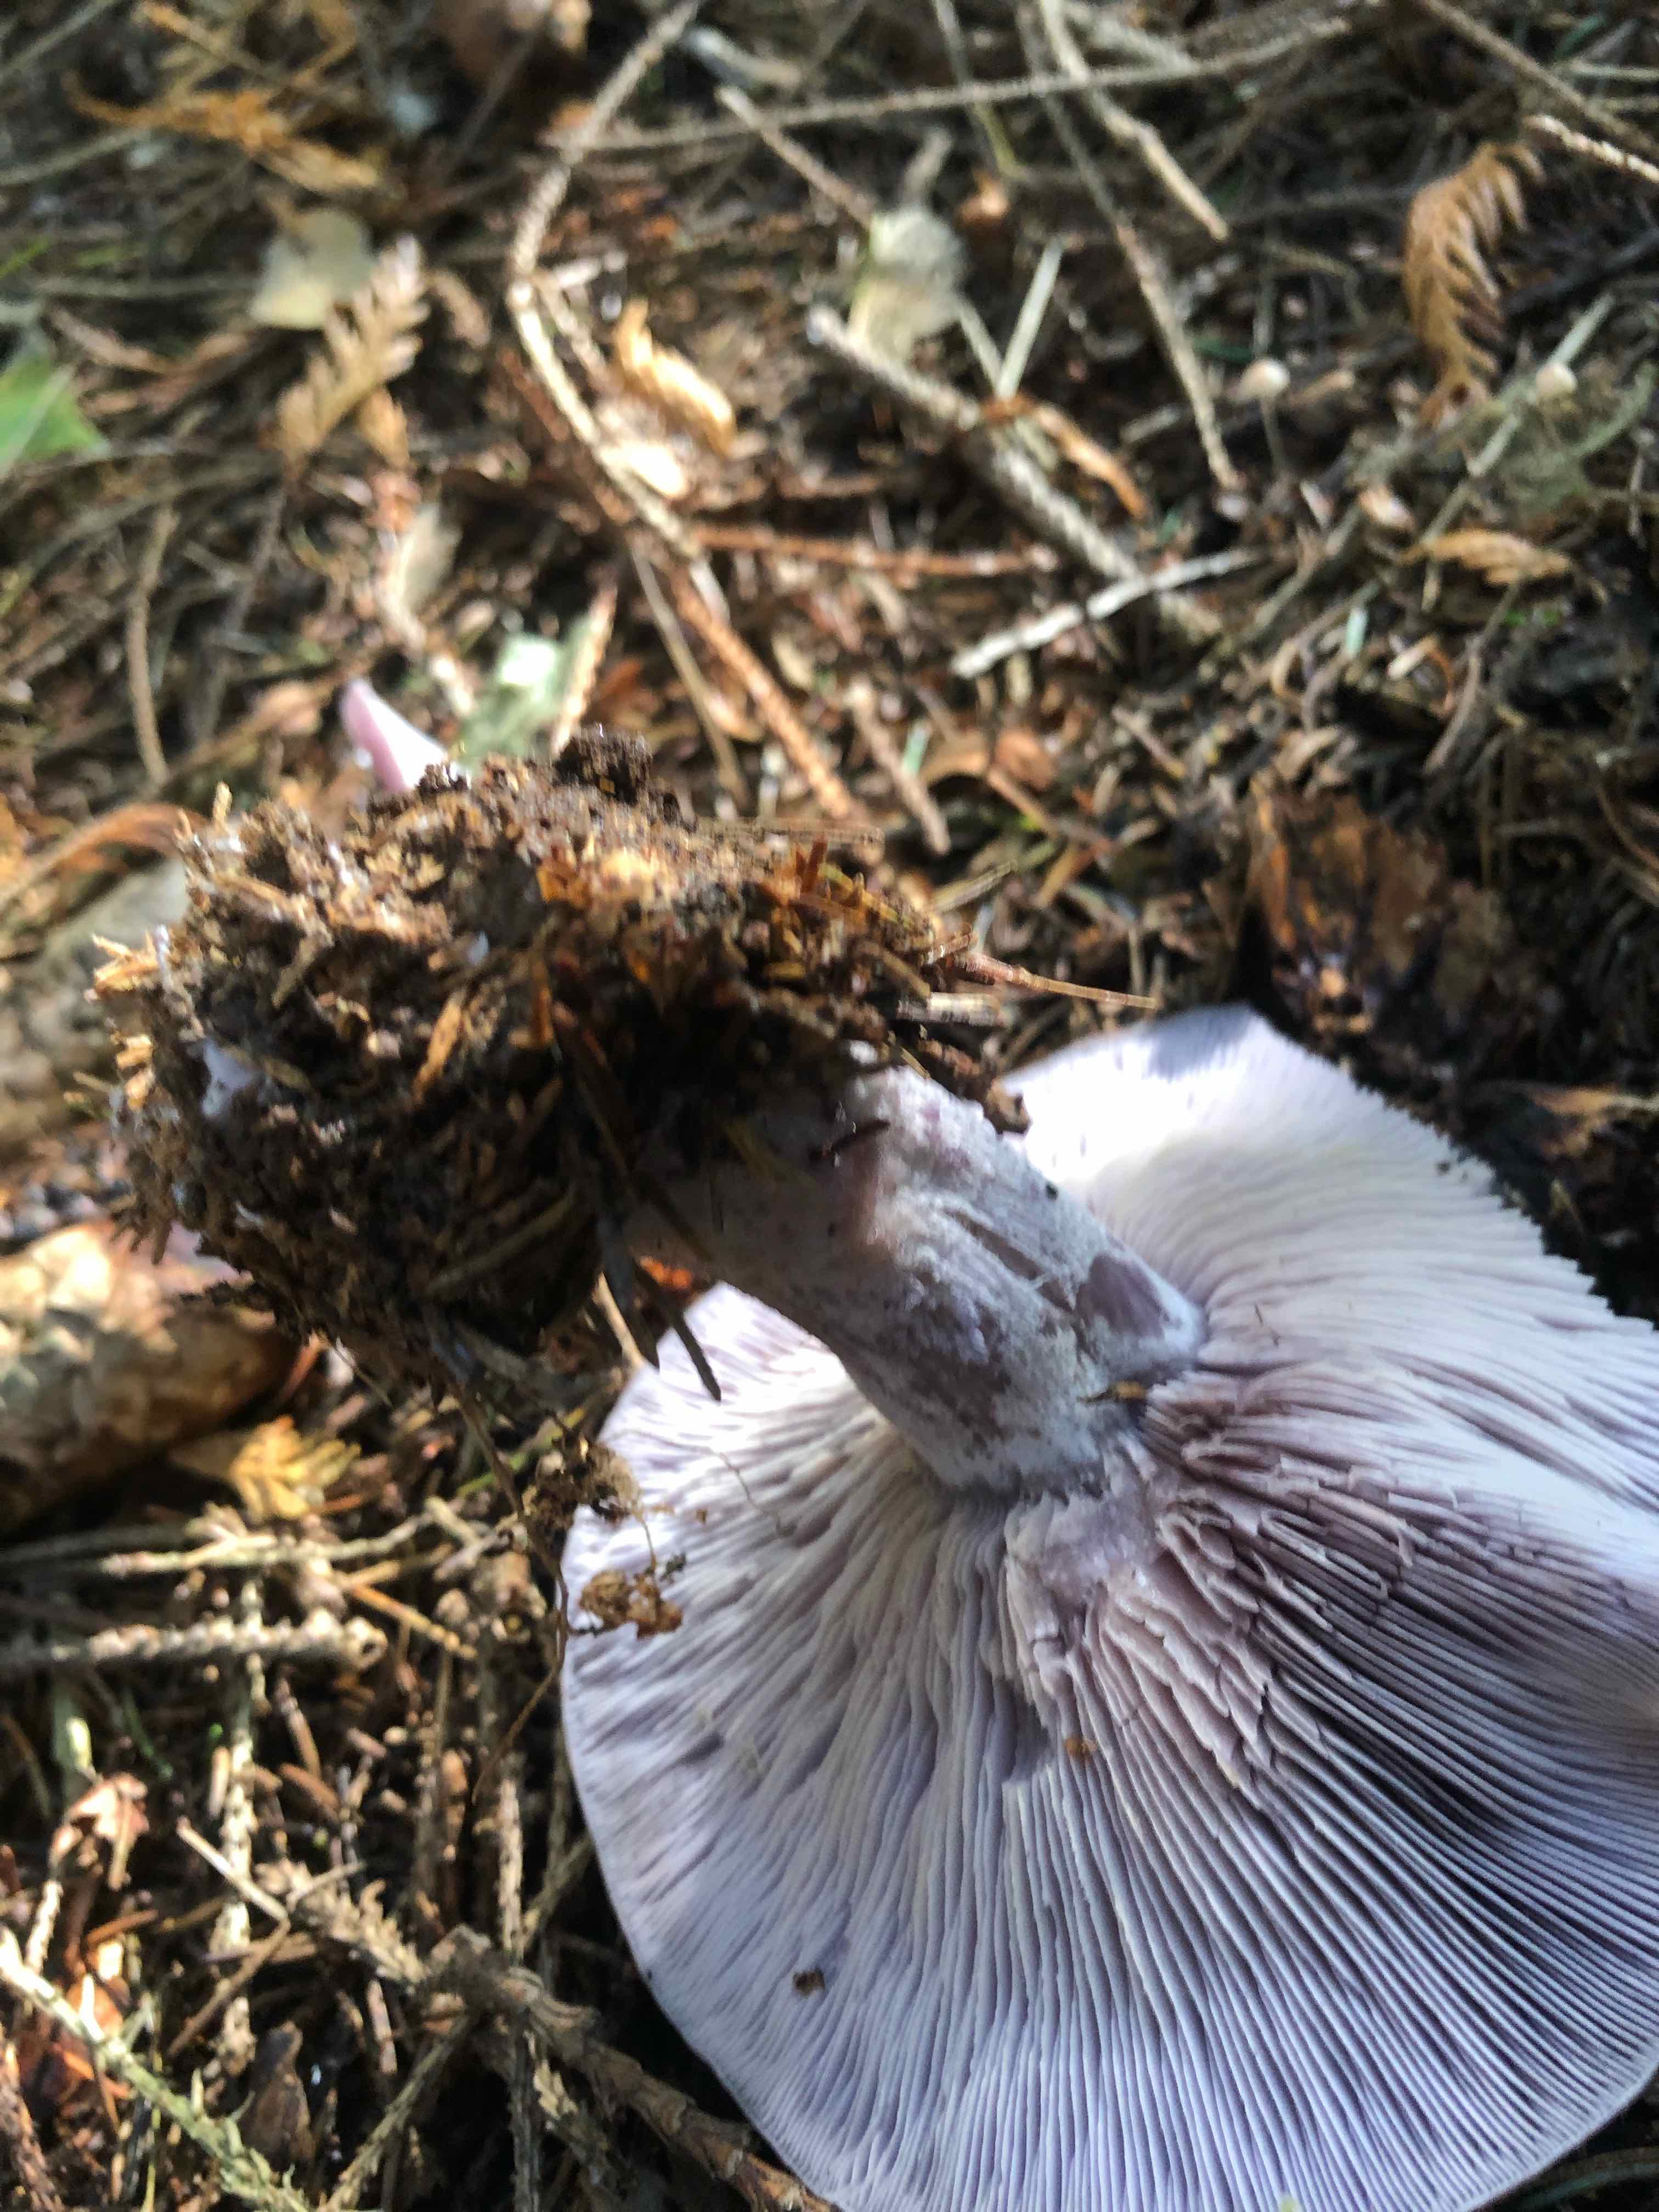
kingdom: Fungi
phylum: Basidiomycota
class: Agaricomycetes
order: Agaricales
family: Tricholomataceae
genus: Lepista
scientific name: Lepista nuda
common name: violet hekseringshat
